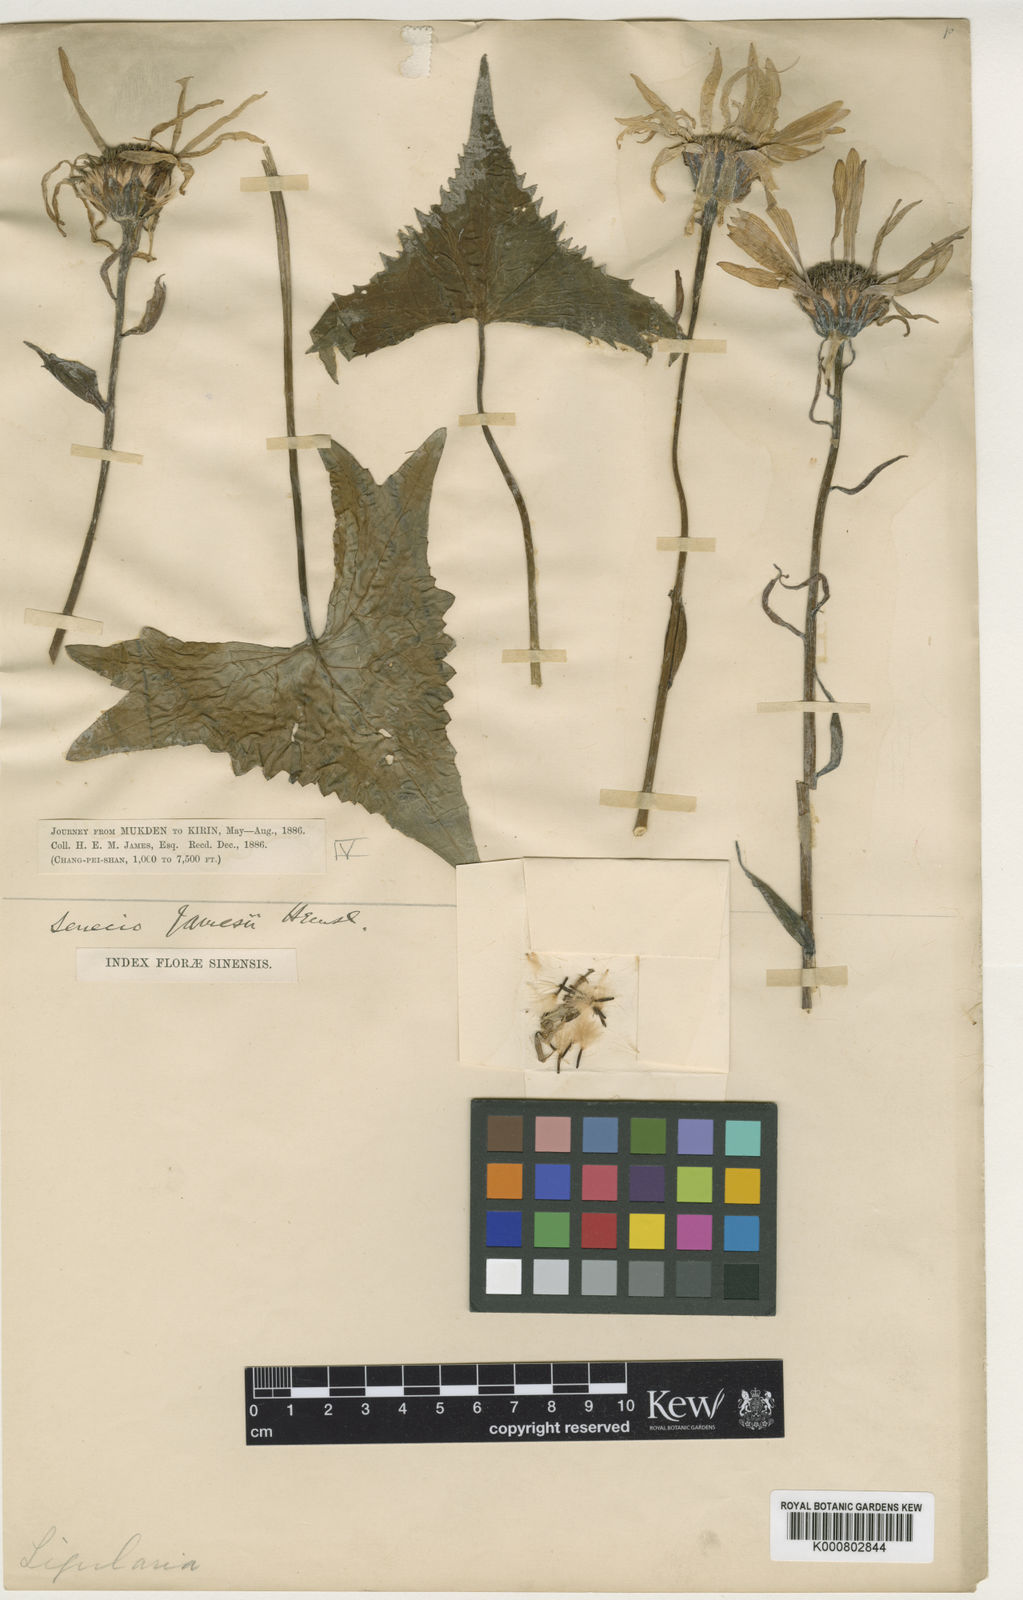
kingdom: Plantae
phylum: Tracheophyta
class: Magnoliopsida
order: Asterales
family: Asteraceae
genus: Ligularia
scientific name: Ligularia jamesii
